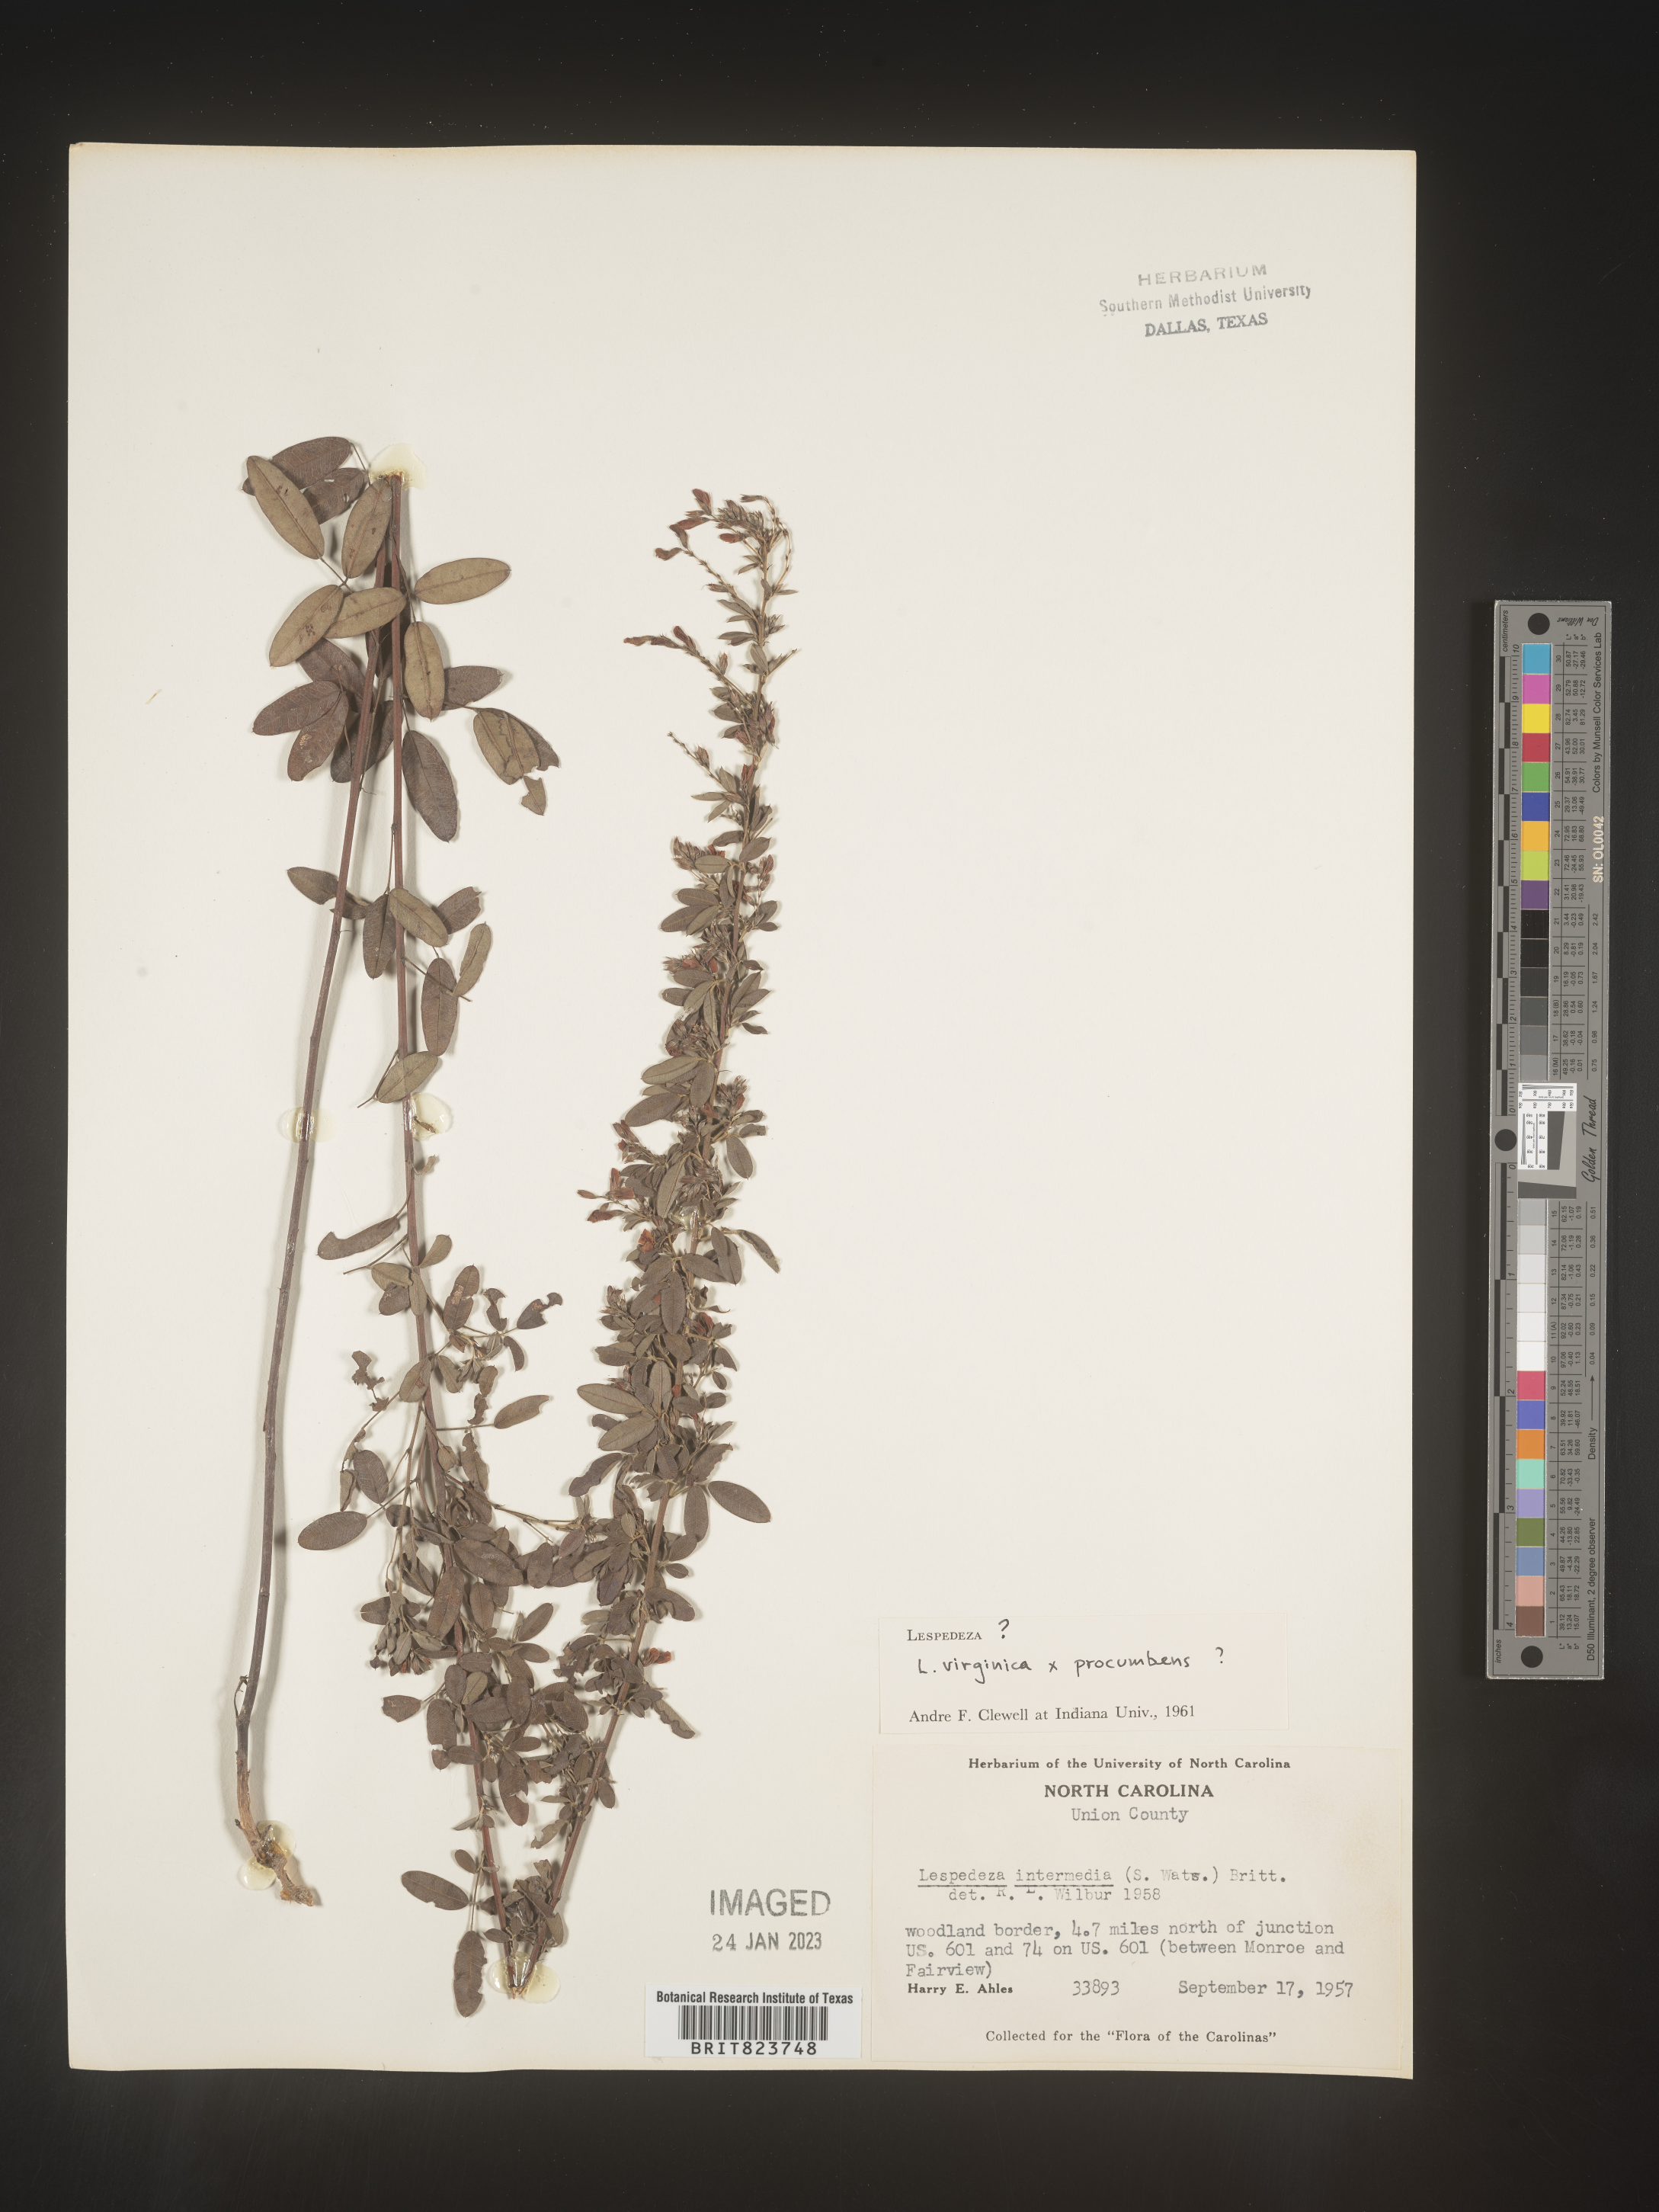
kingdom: Plantae
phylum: Tracheophyta
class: Magnoliopsida
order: Fabales
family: Fabaceae
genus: Lespedeza
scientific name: Lespedeza virginica
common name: Slender bush-clover
